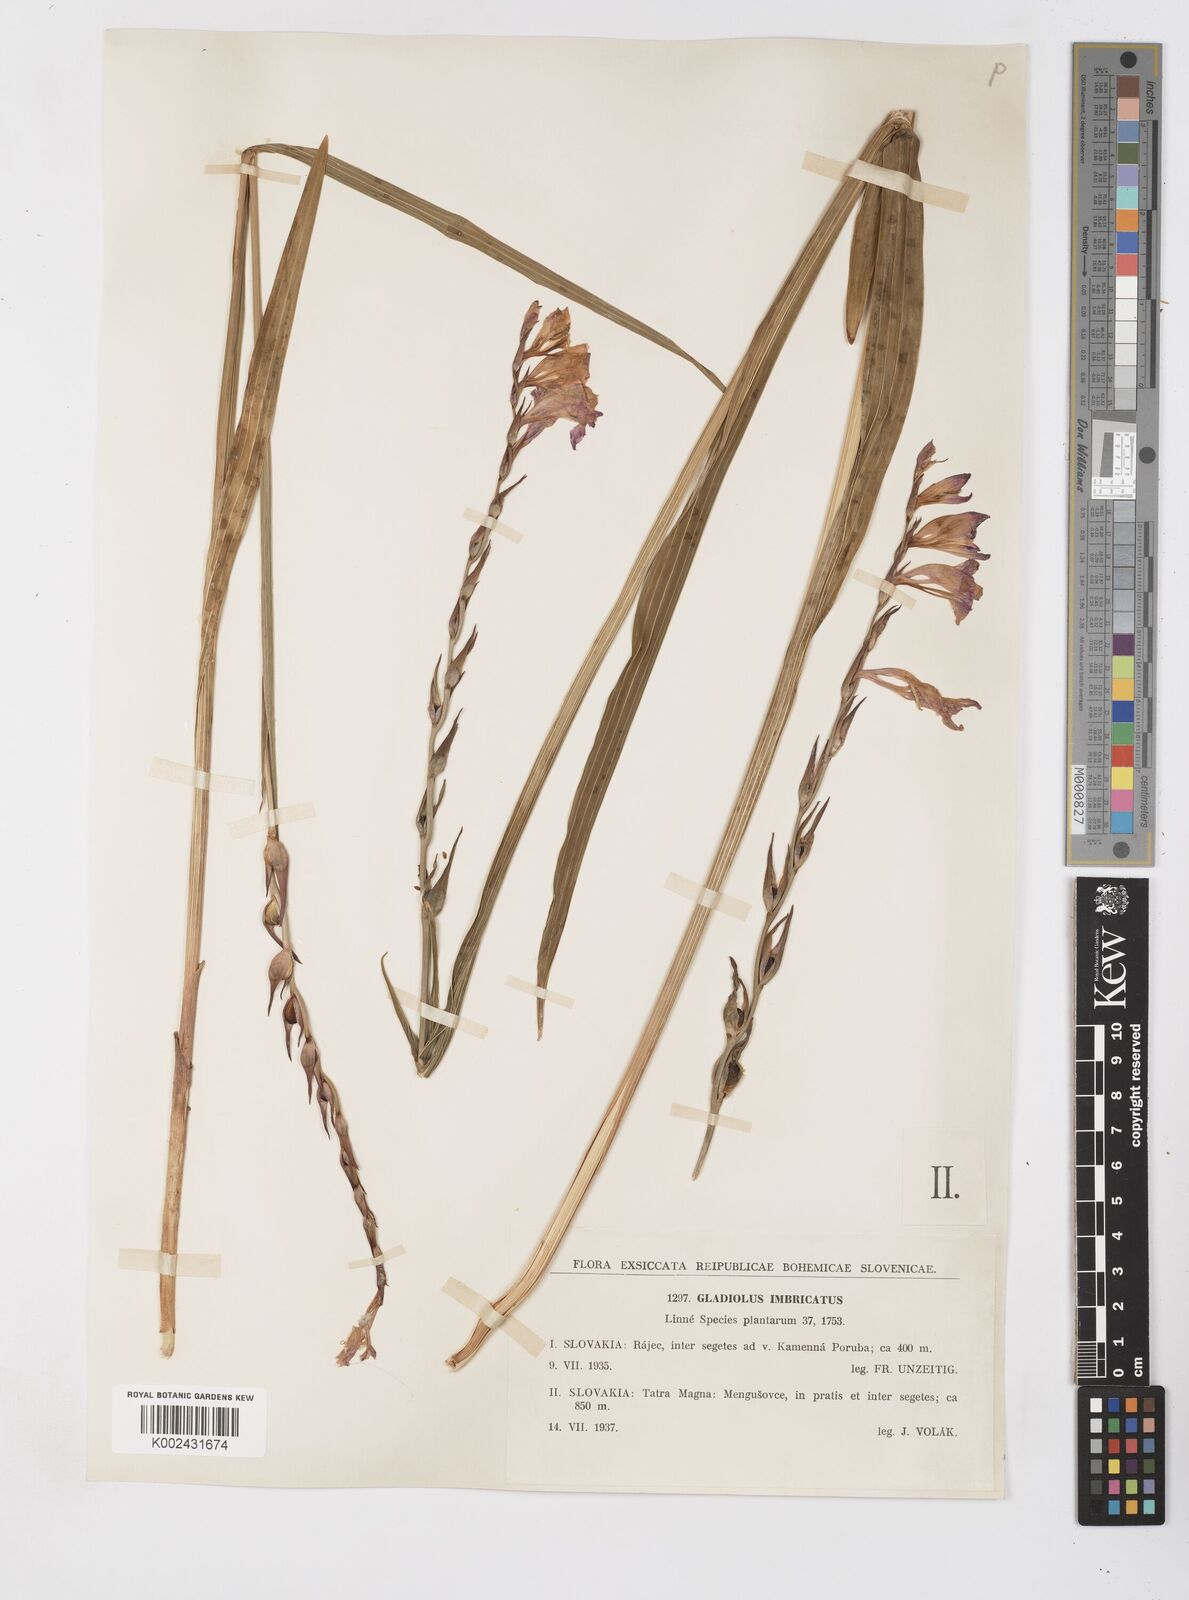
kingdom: Plantae
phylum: Tracheophyta
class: Liliopsida
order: Asparagales
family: Iridaceae
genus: Gladiolus
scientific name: Gladiolus imbricatus
